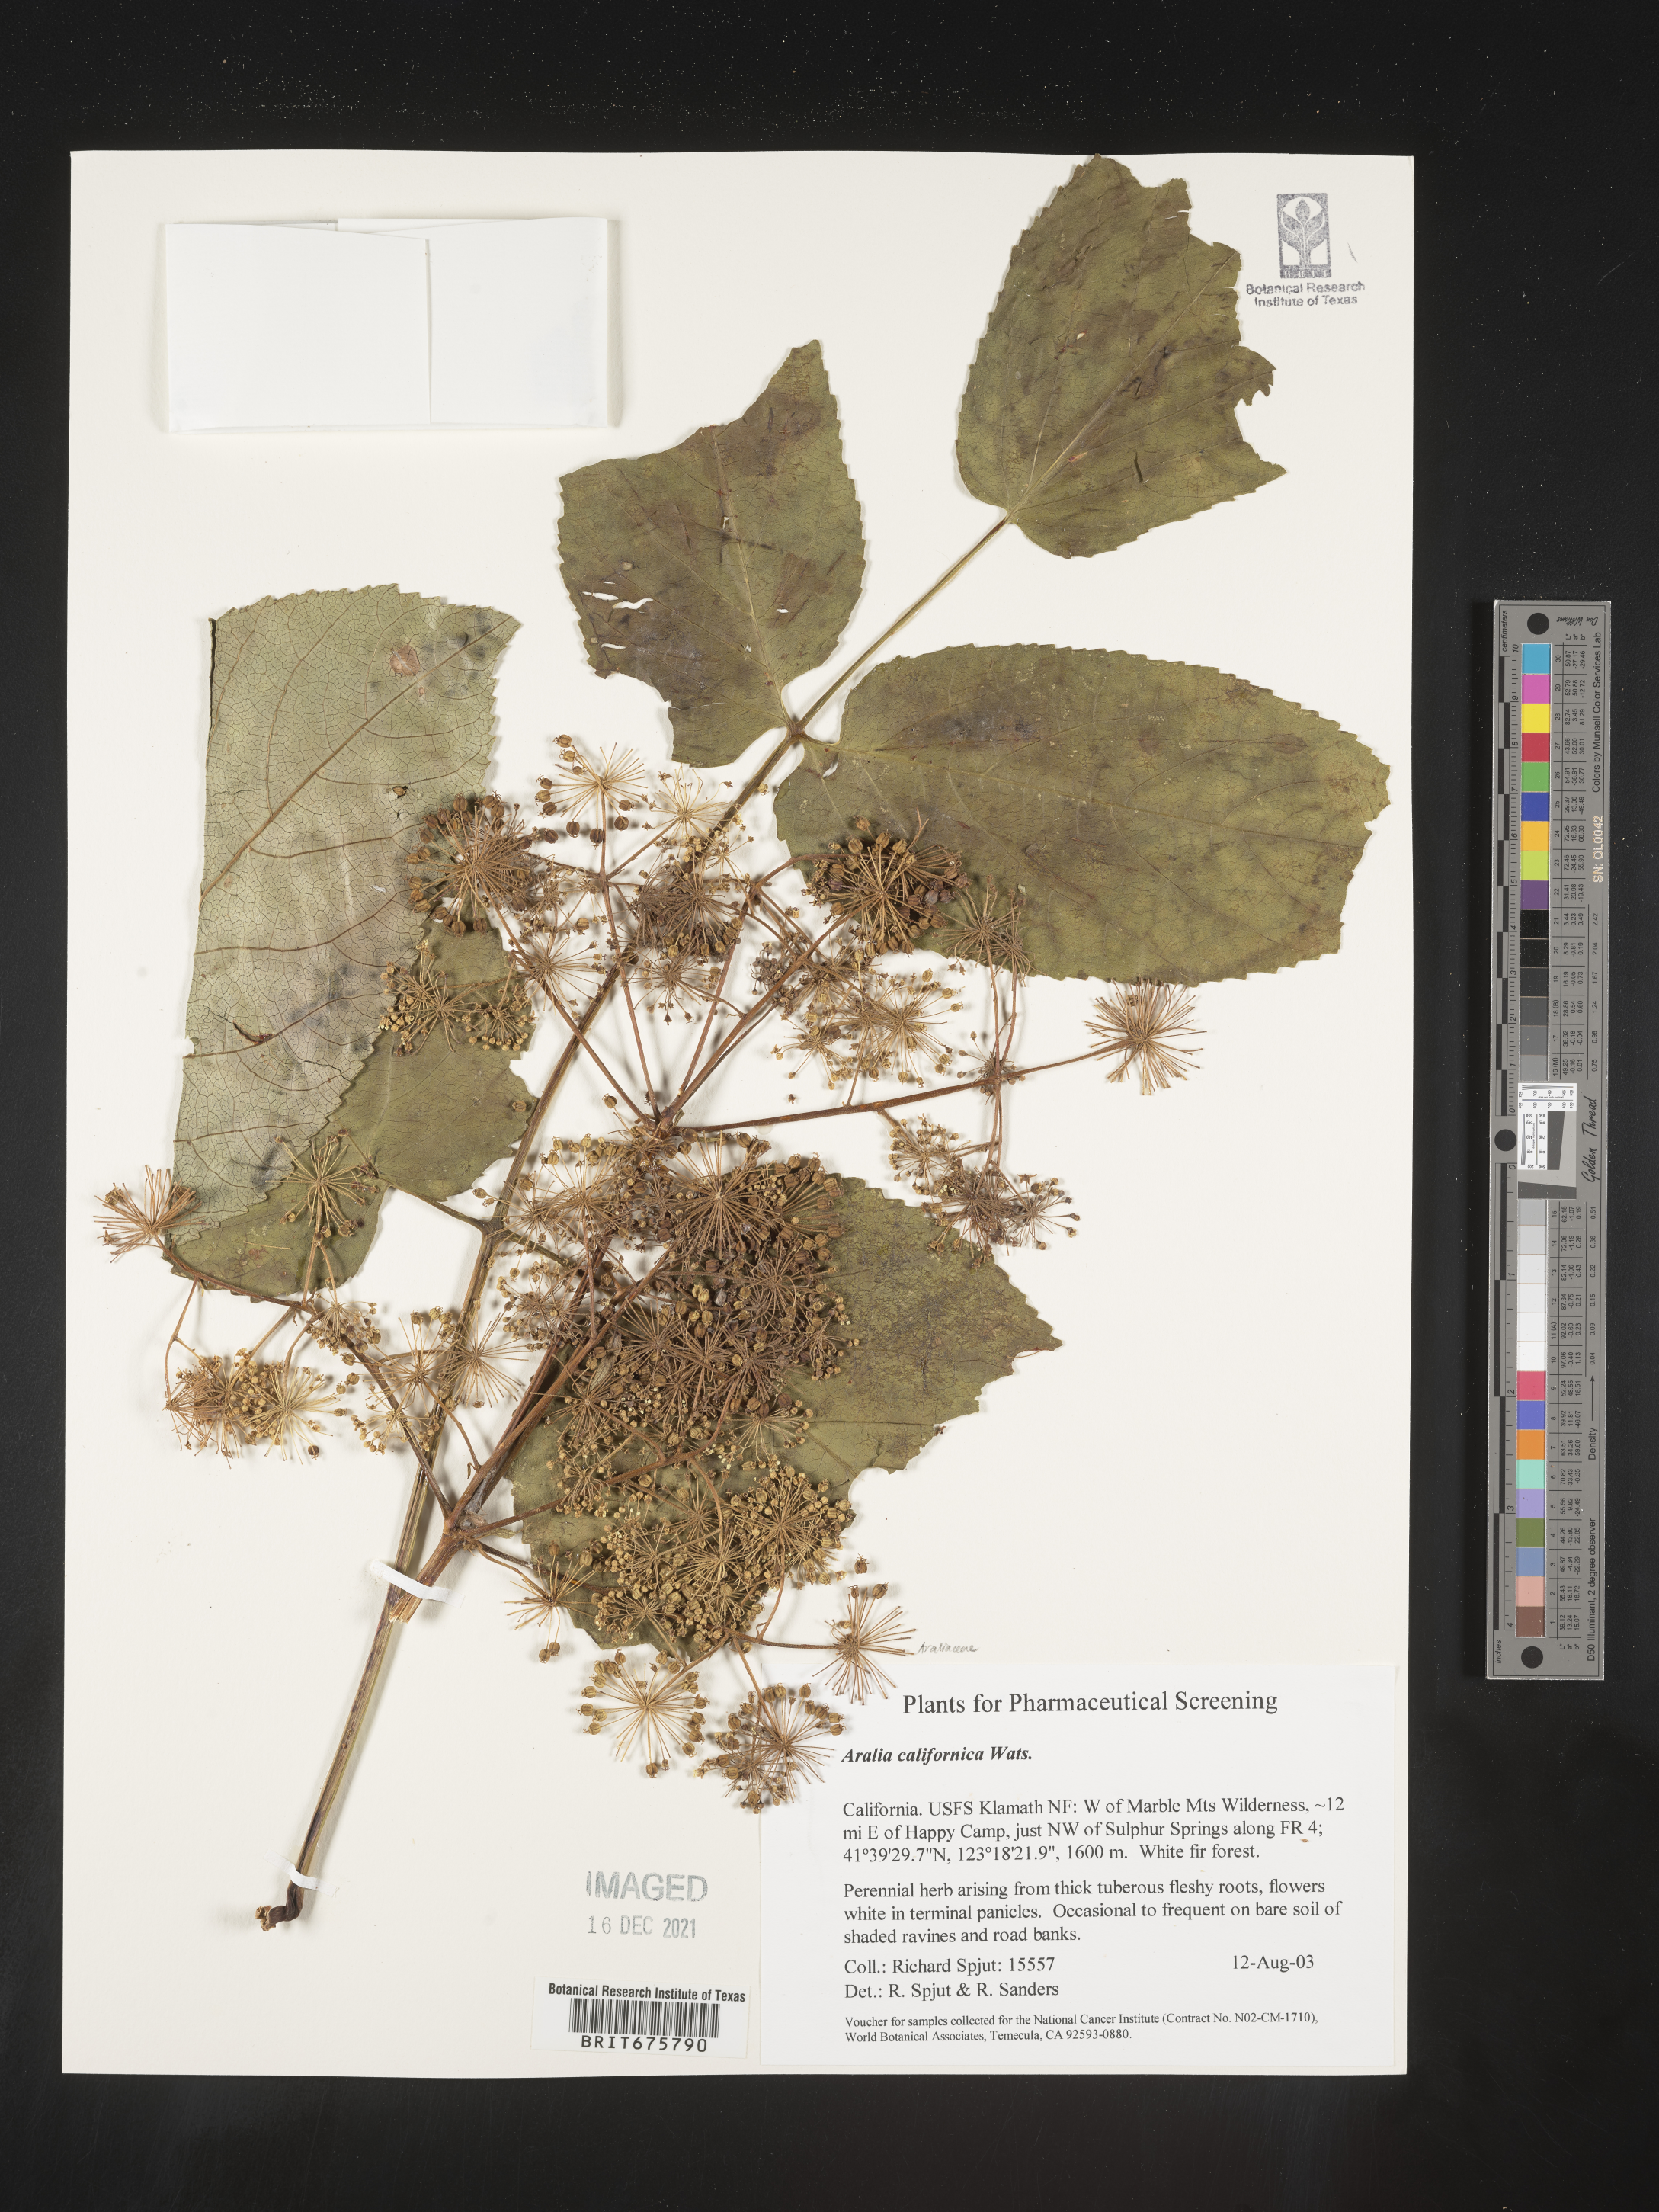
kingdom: Plantae
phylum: Tracheophyta
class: Magnoliopsida
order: Apiales
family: Araliaceae
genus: Aralia
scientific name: Aralia californica
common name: California-ginseng
